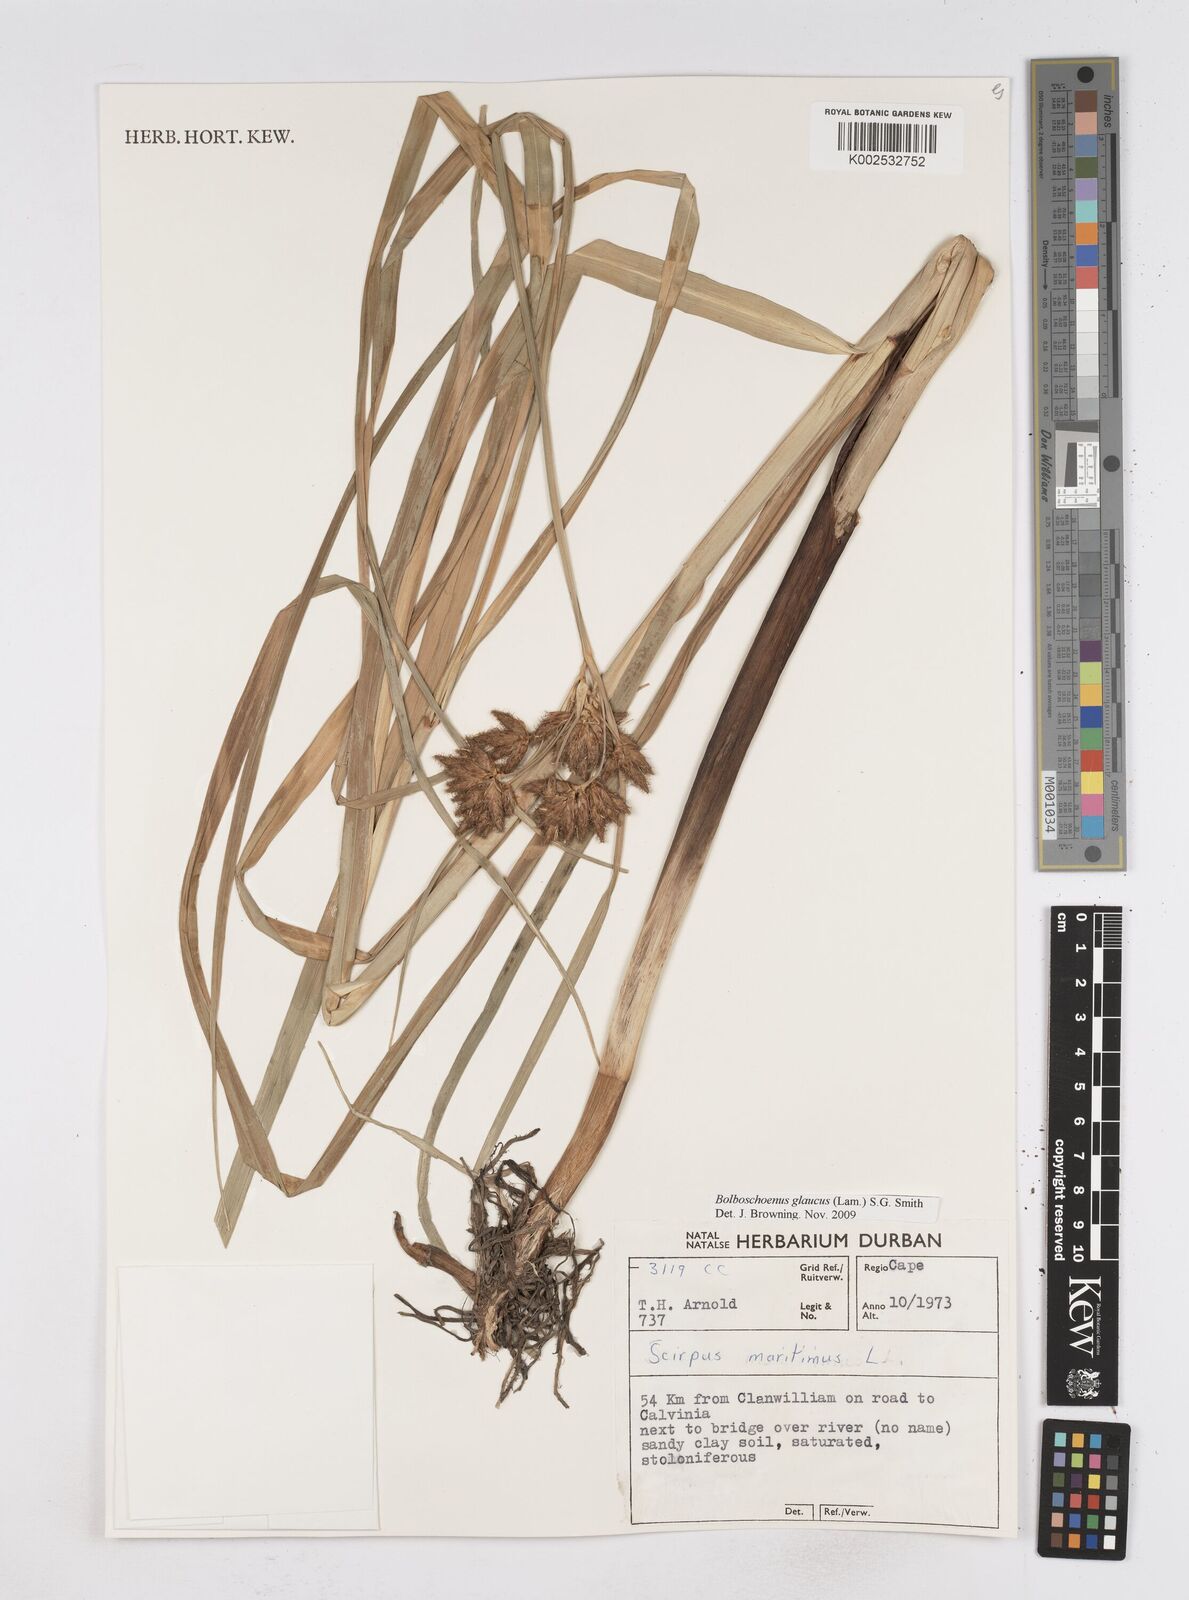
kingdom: Plantae
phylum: Tracheophyta
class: Liliopsida
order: Poales
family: Cyperaceae
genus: Bolboschoenus
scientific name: Bolboschoenus maritimus
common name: Sea club-rush
